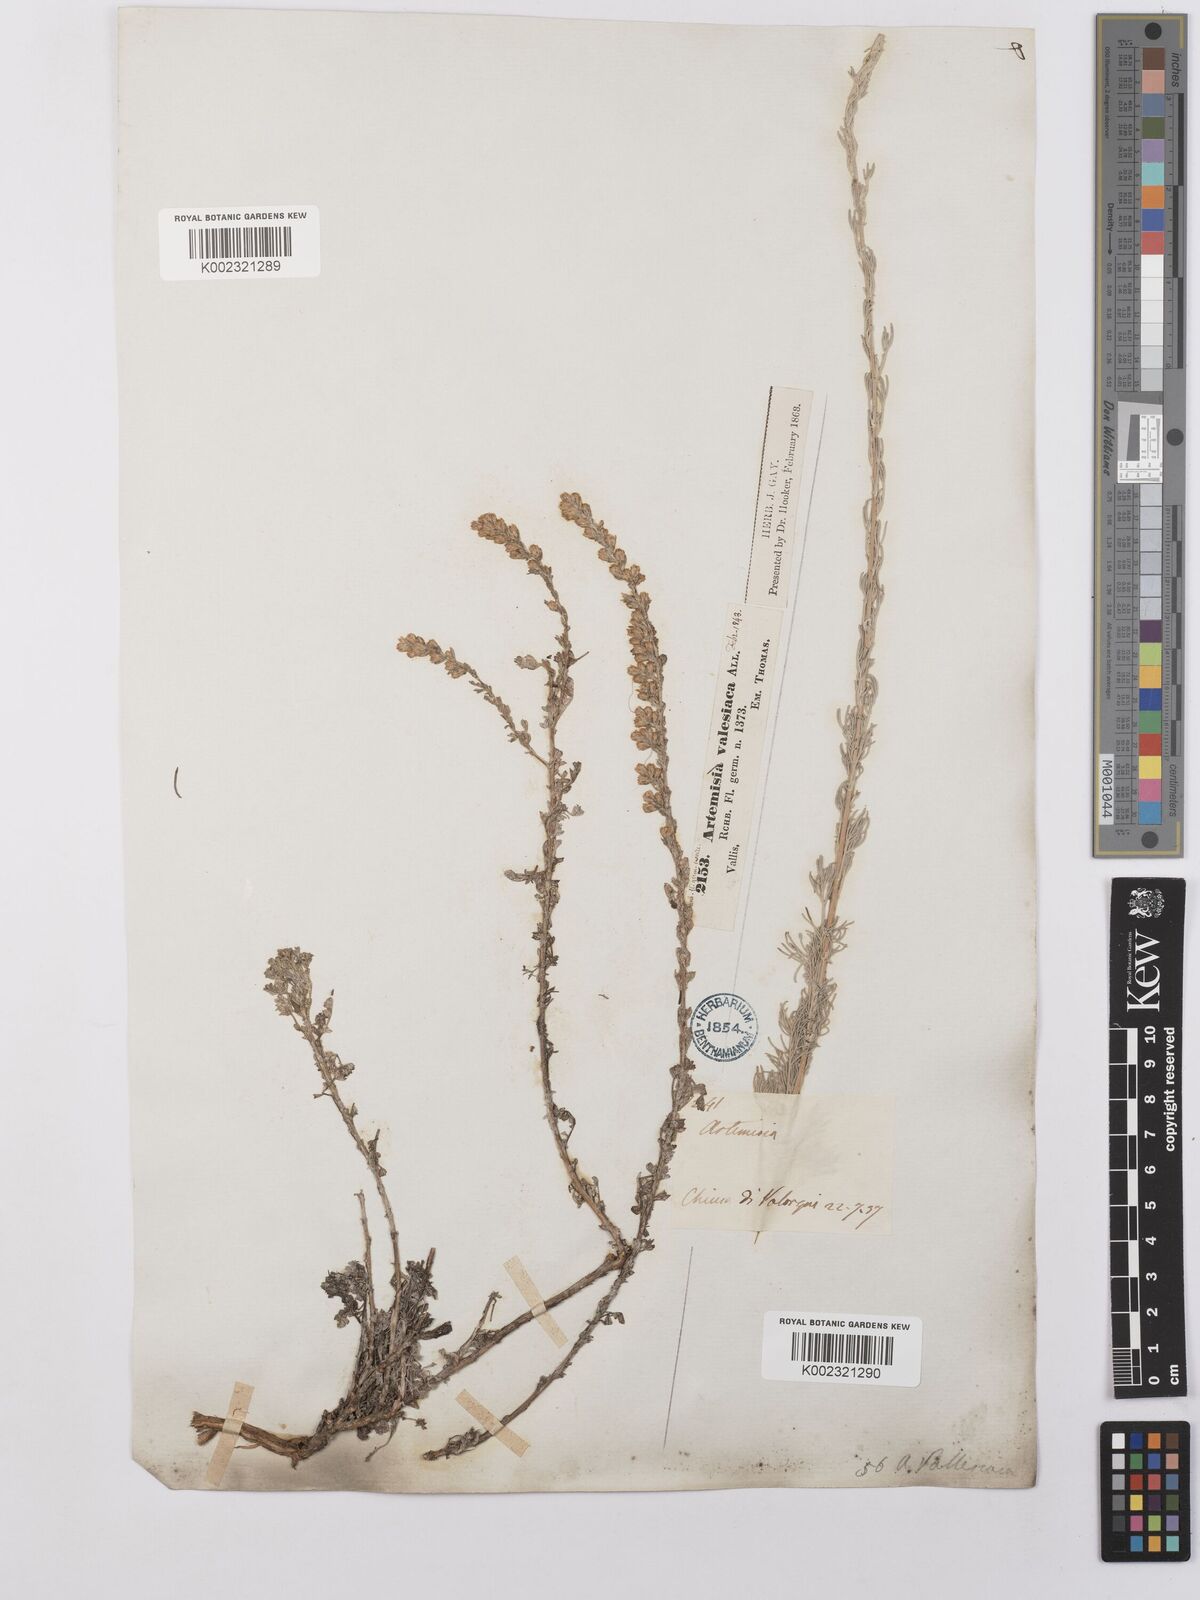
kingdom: Plantae
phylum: Tracheophyta
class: Magnoliopsida
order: Asterales
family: Asteraceae
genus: Artemisia
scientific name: Artemisia vallesiaca
